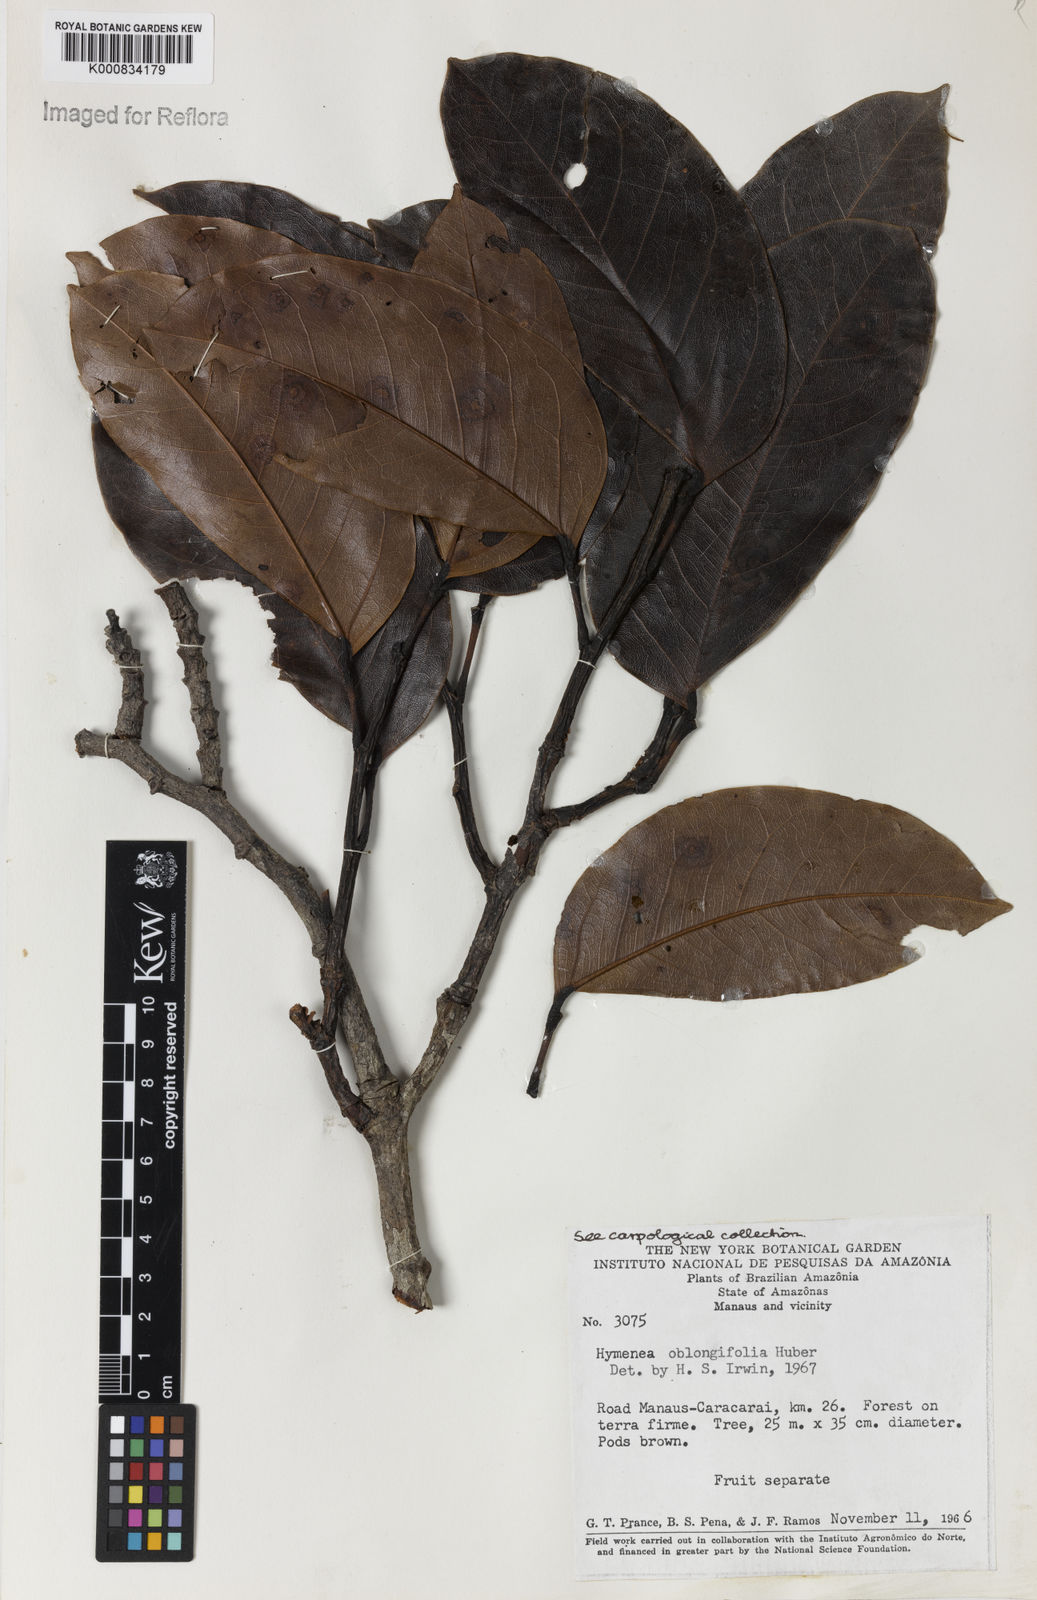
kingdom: Plantae
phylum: Tracheophyta
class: Magnoliopsida
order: Fabales
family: Fabaceae
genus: Hymenaea
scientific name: Hymenaea oblongifolia
